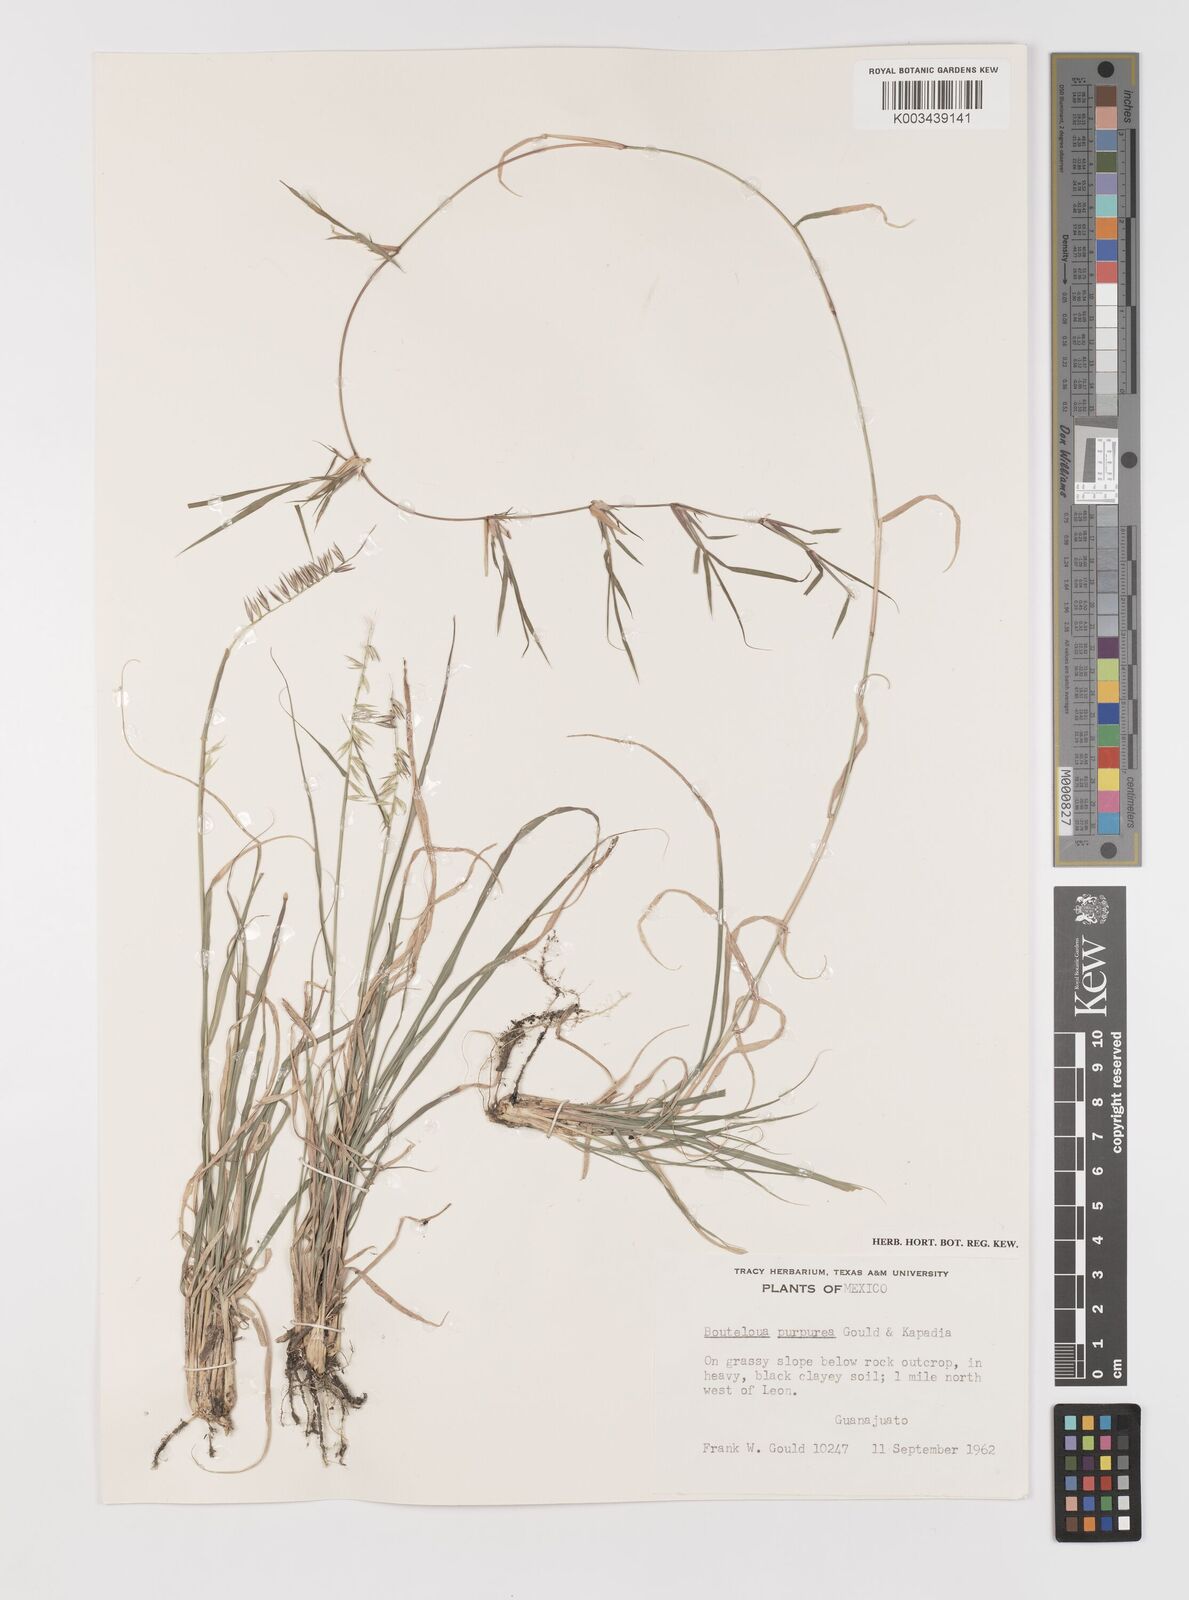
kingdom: Plantae
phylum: Tracheophyta
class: Liliopsida
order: Poales
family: Poaceae
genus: Bouteloua
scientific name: Bouteloua purpurea
